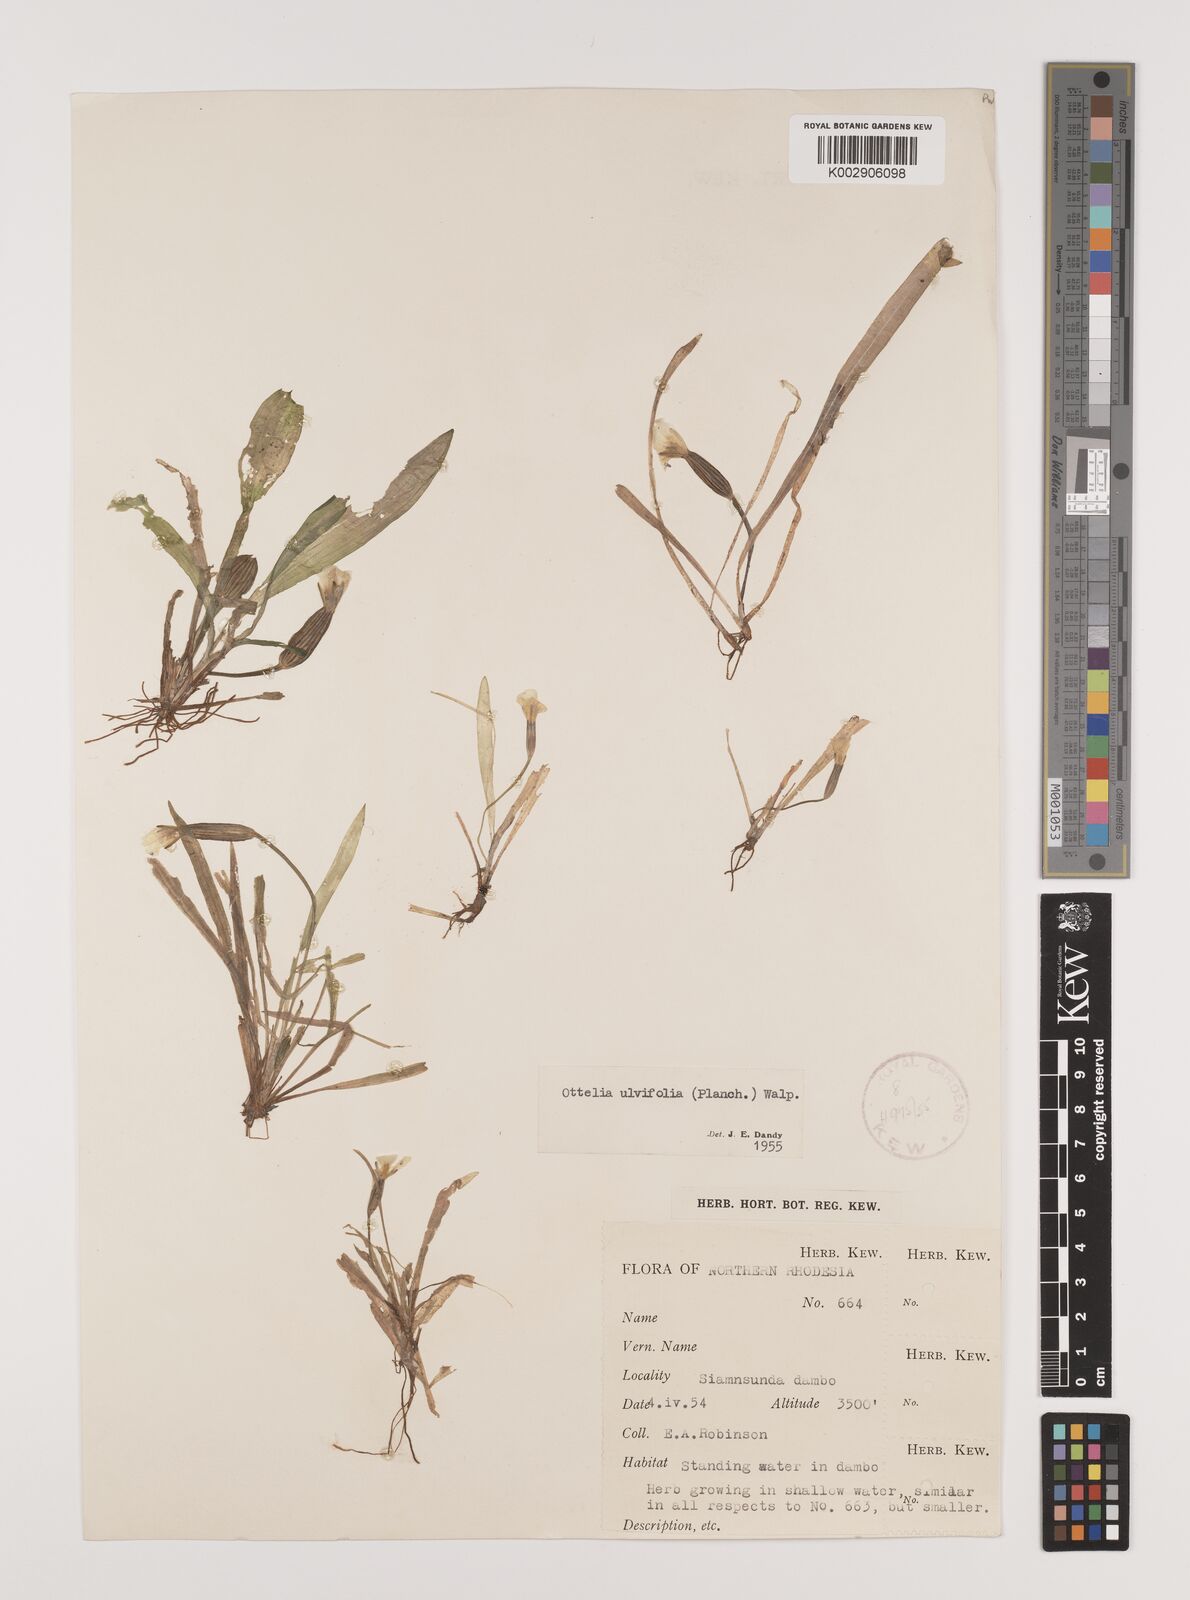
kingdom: Plantae
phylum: Tracheophyta
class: Liliopsida
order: Alismatales
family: Hydrocharitaceae
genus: Ottelia
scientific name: Ottelia ulvifolia
